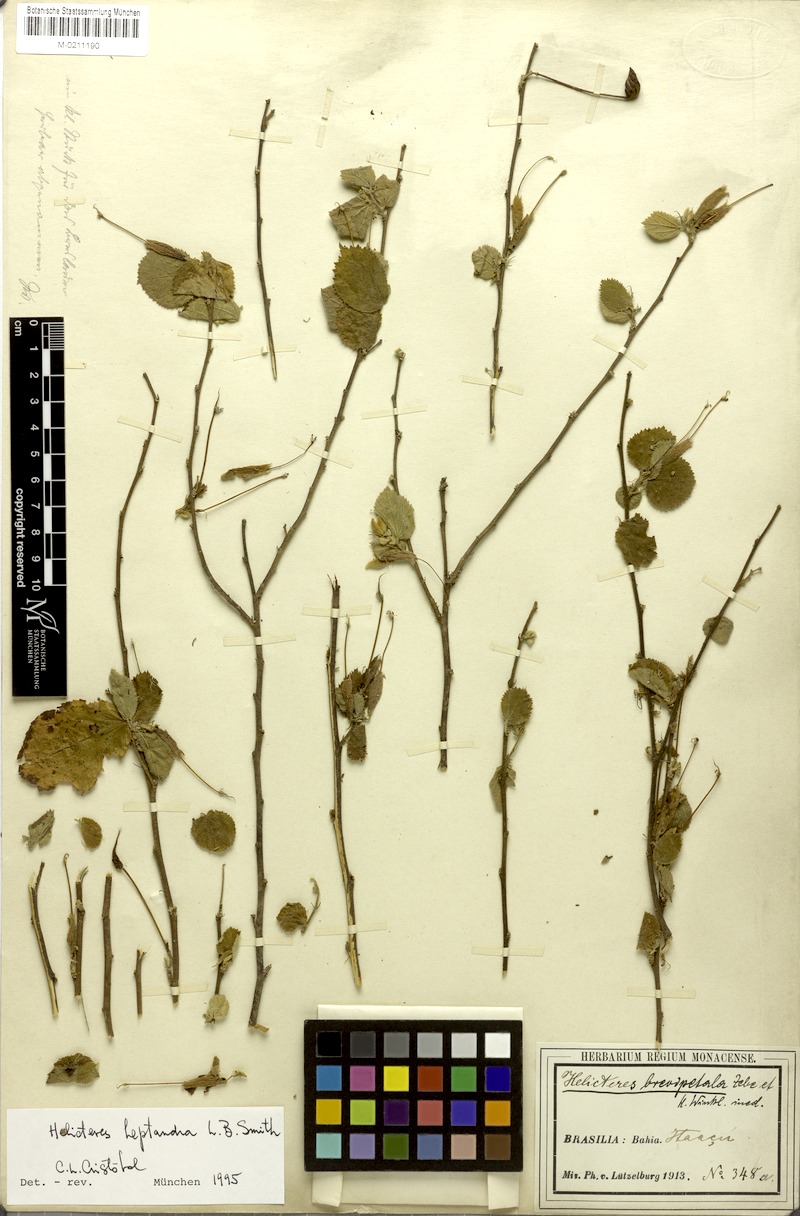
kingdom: Plantae
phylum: Tracheophyta
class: Magnoliopsida
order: Malvales
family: Malvaceae
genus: Helicteres
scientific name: Helicteres heptandra
